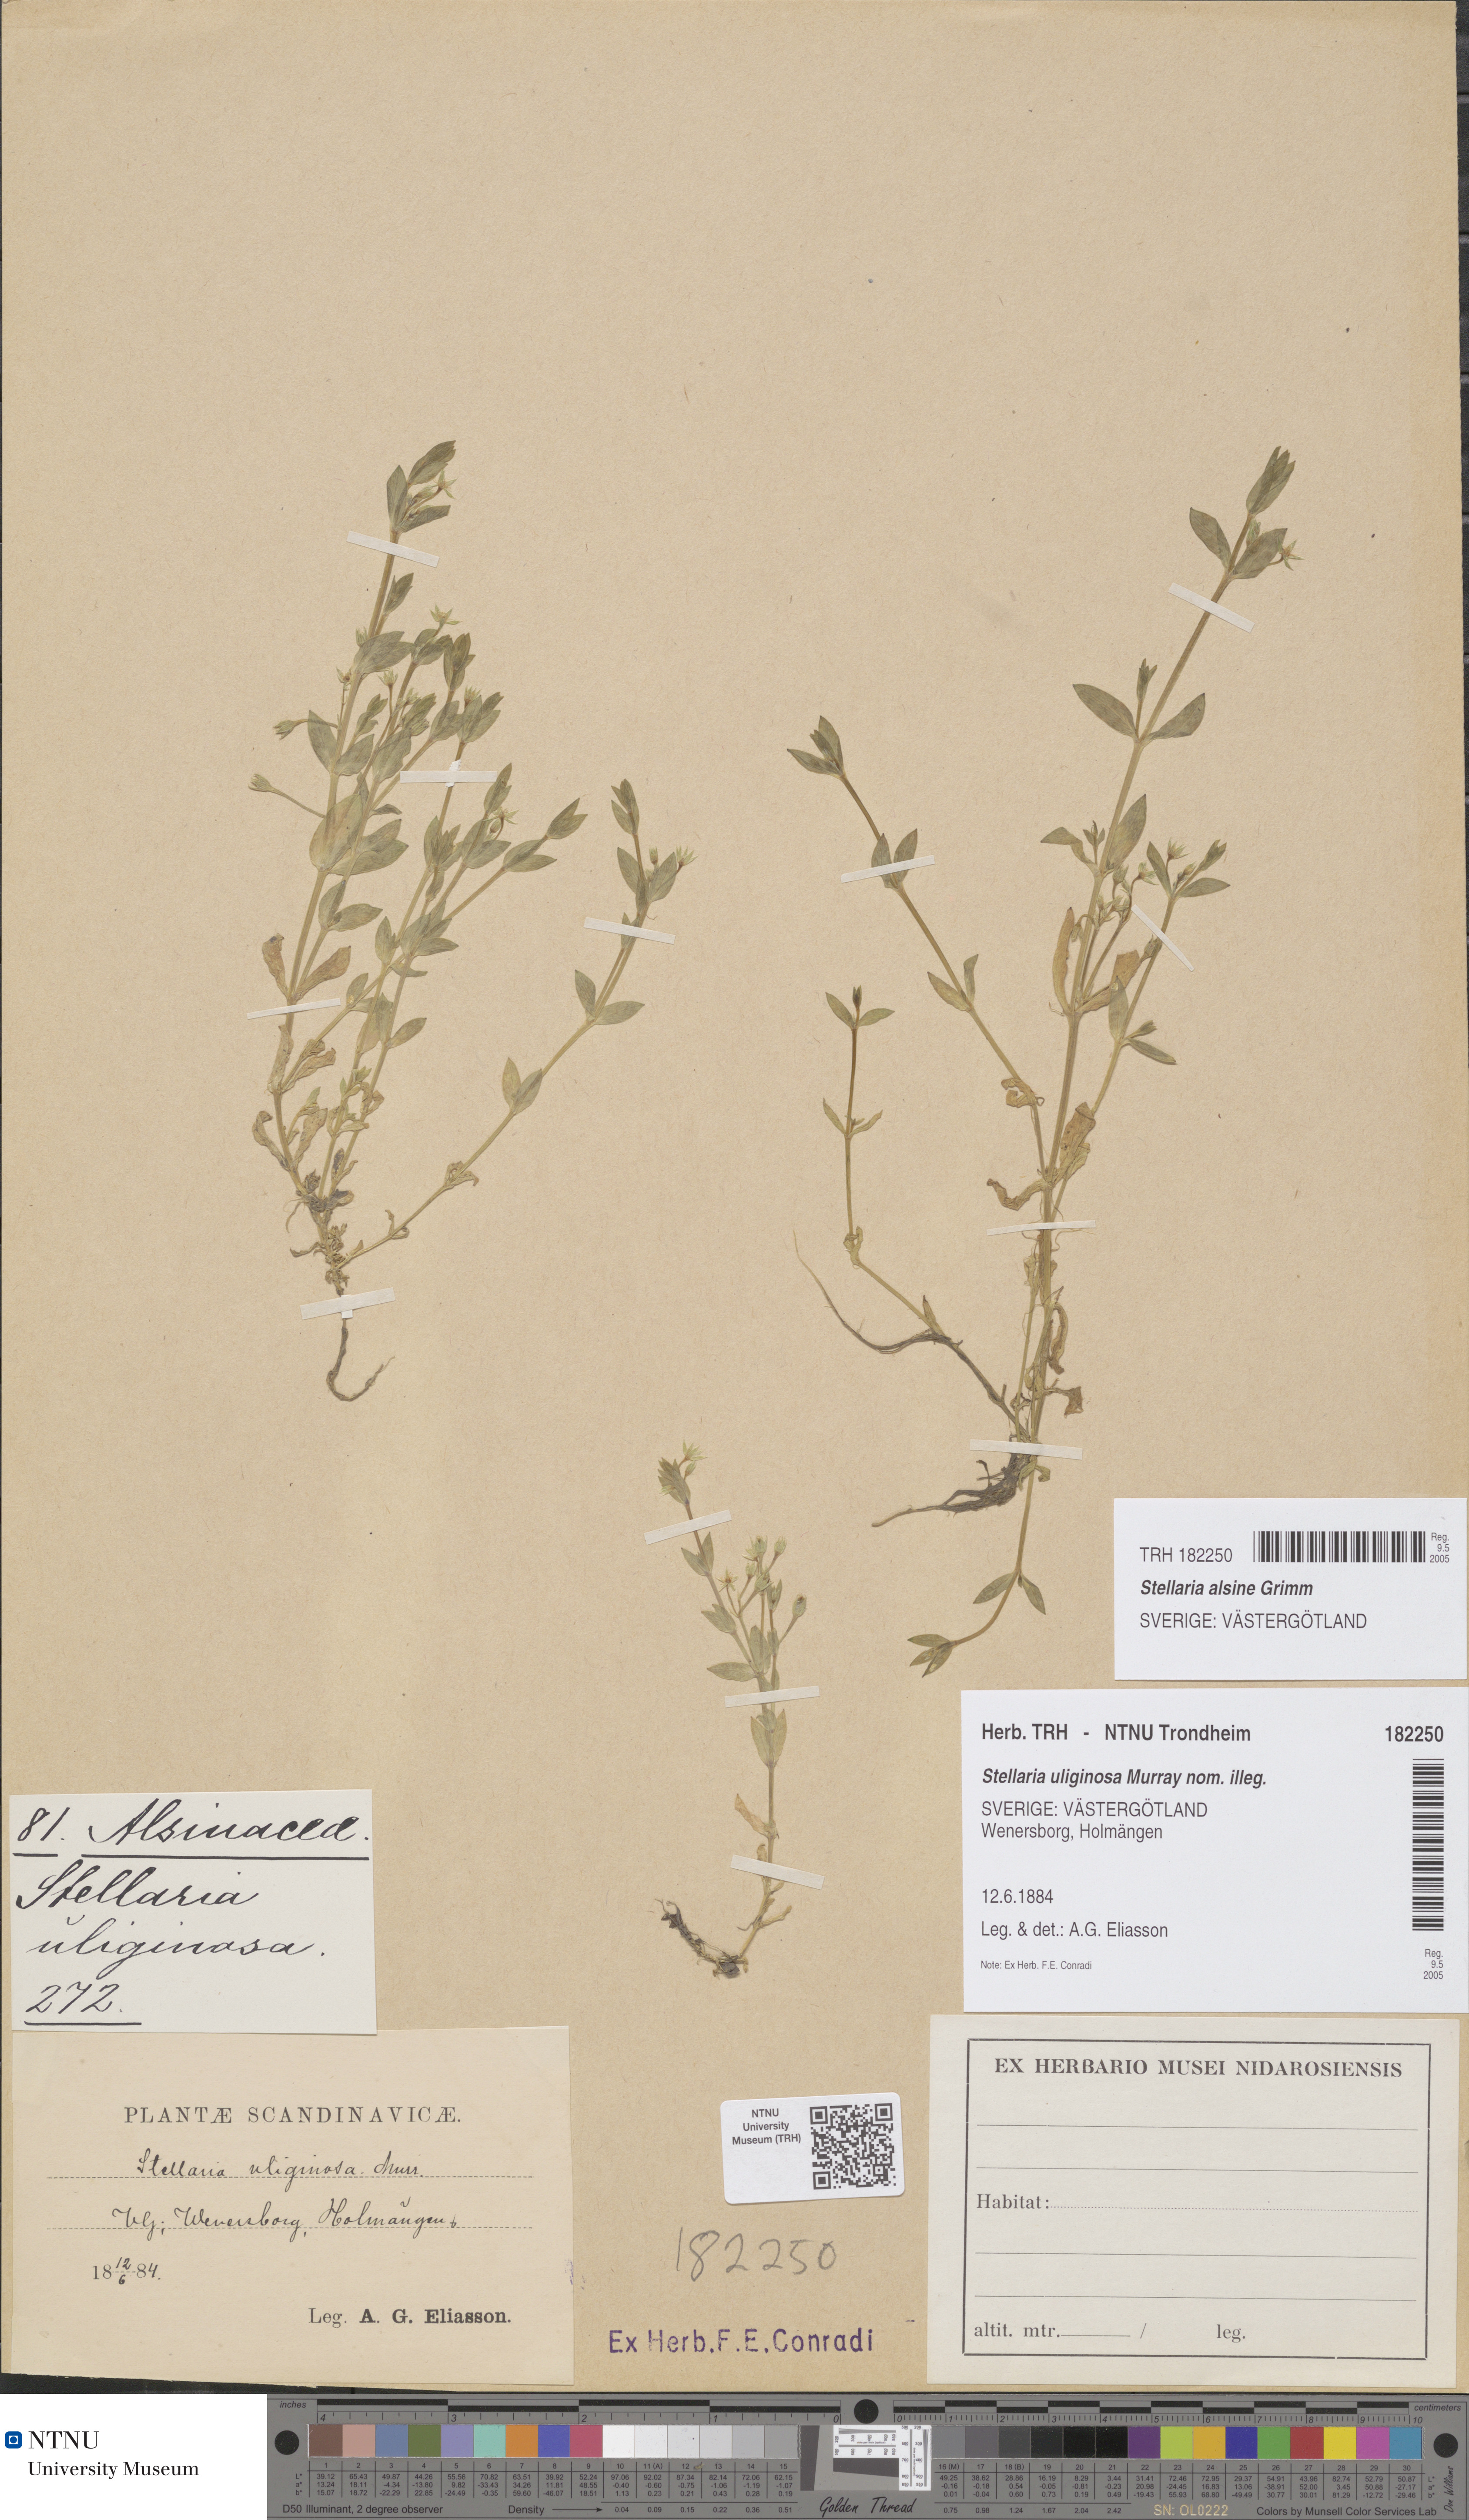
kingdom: Plantae
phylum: Tracheophyta
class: Magnoliopsida
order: Caryophyllales
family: Caryophyllaceae
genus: Stellaria
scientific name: Stellaria alsine
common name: Bog stitchwort
